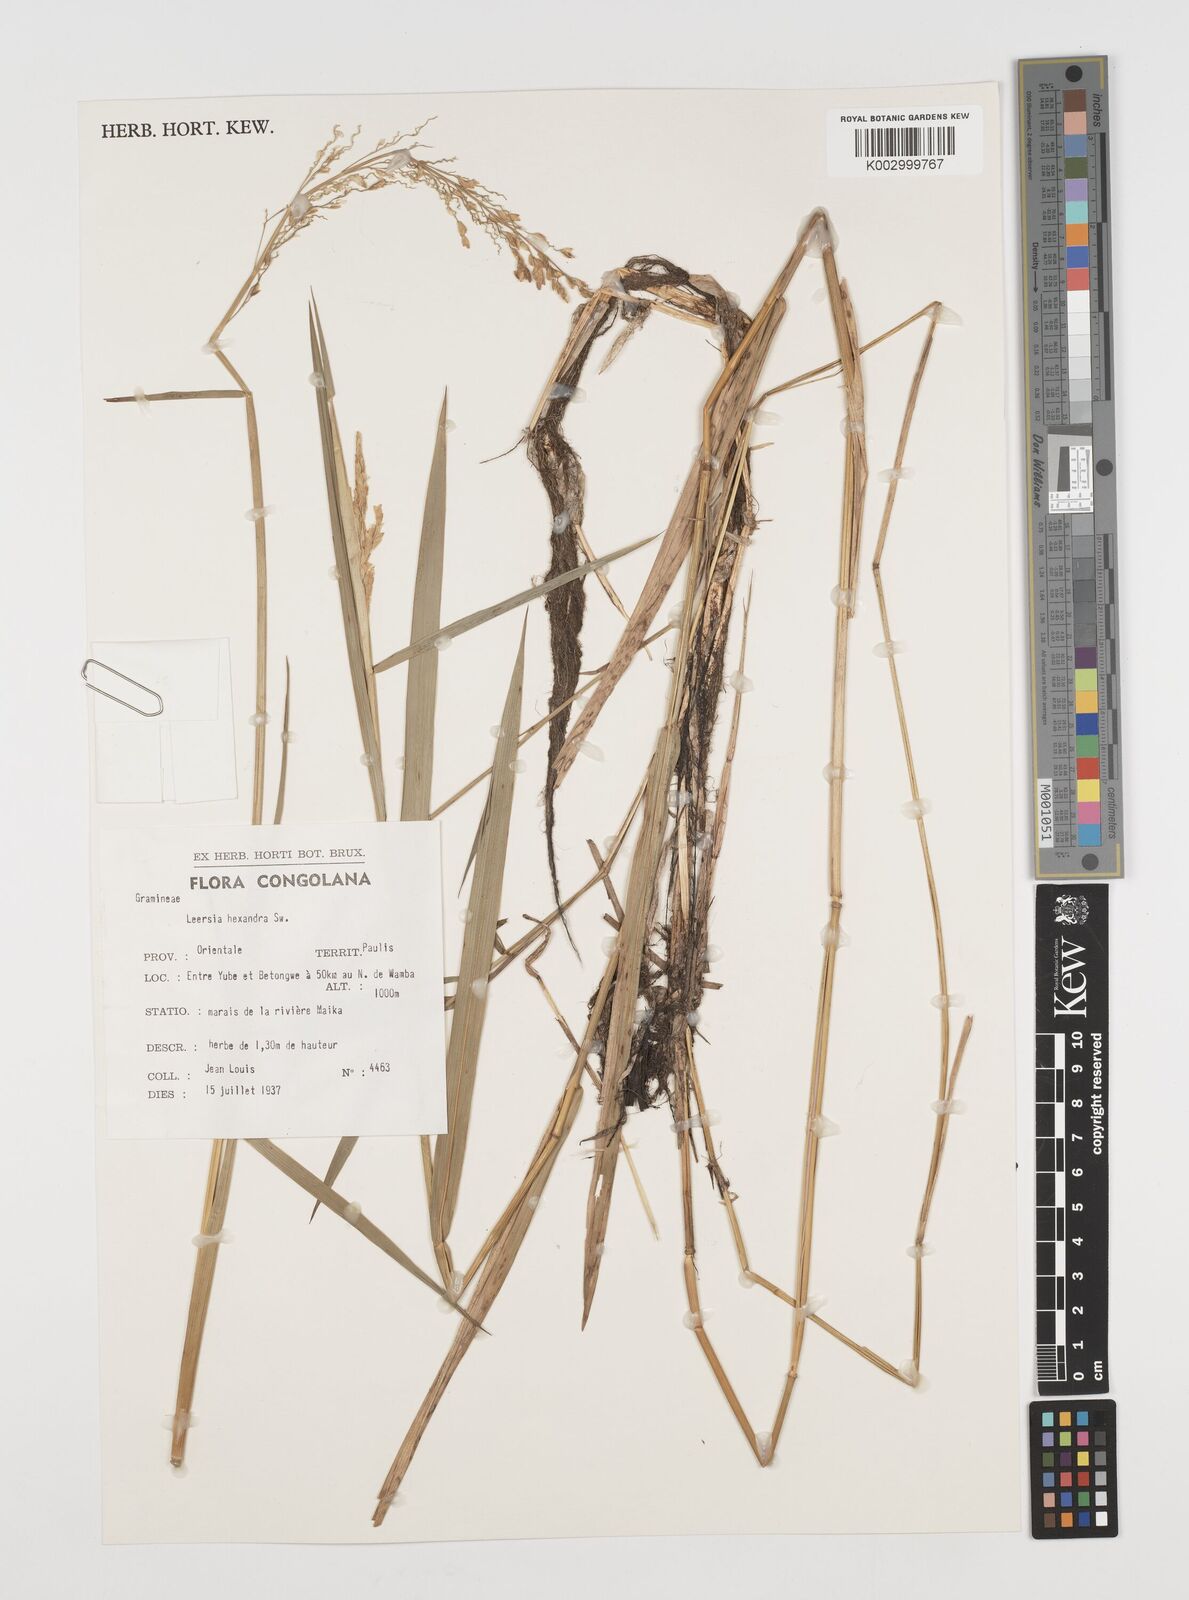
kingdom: Plantae
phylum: Tracheophyta
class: Liliopsida
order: Poales
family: Poaceae
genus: Leersia
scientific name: Leersia hexandra
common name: Southern cut grass
